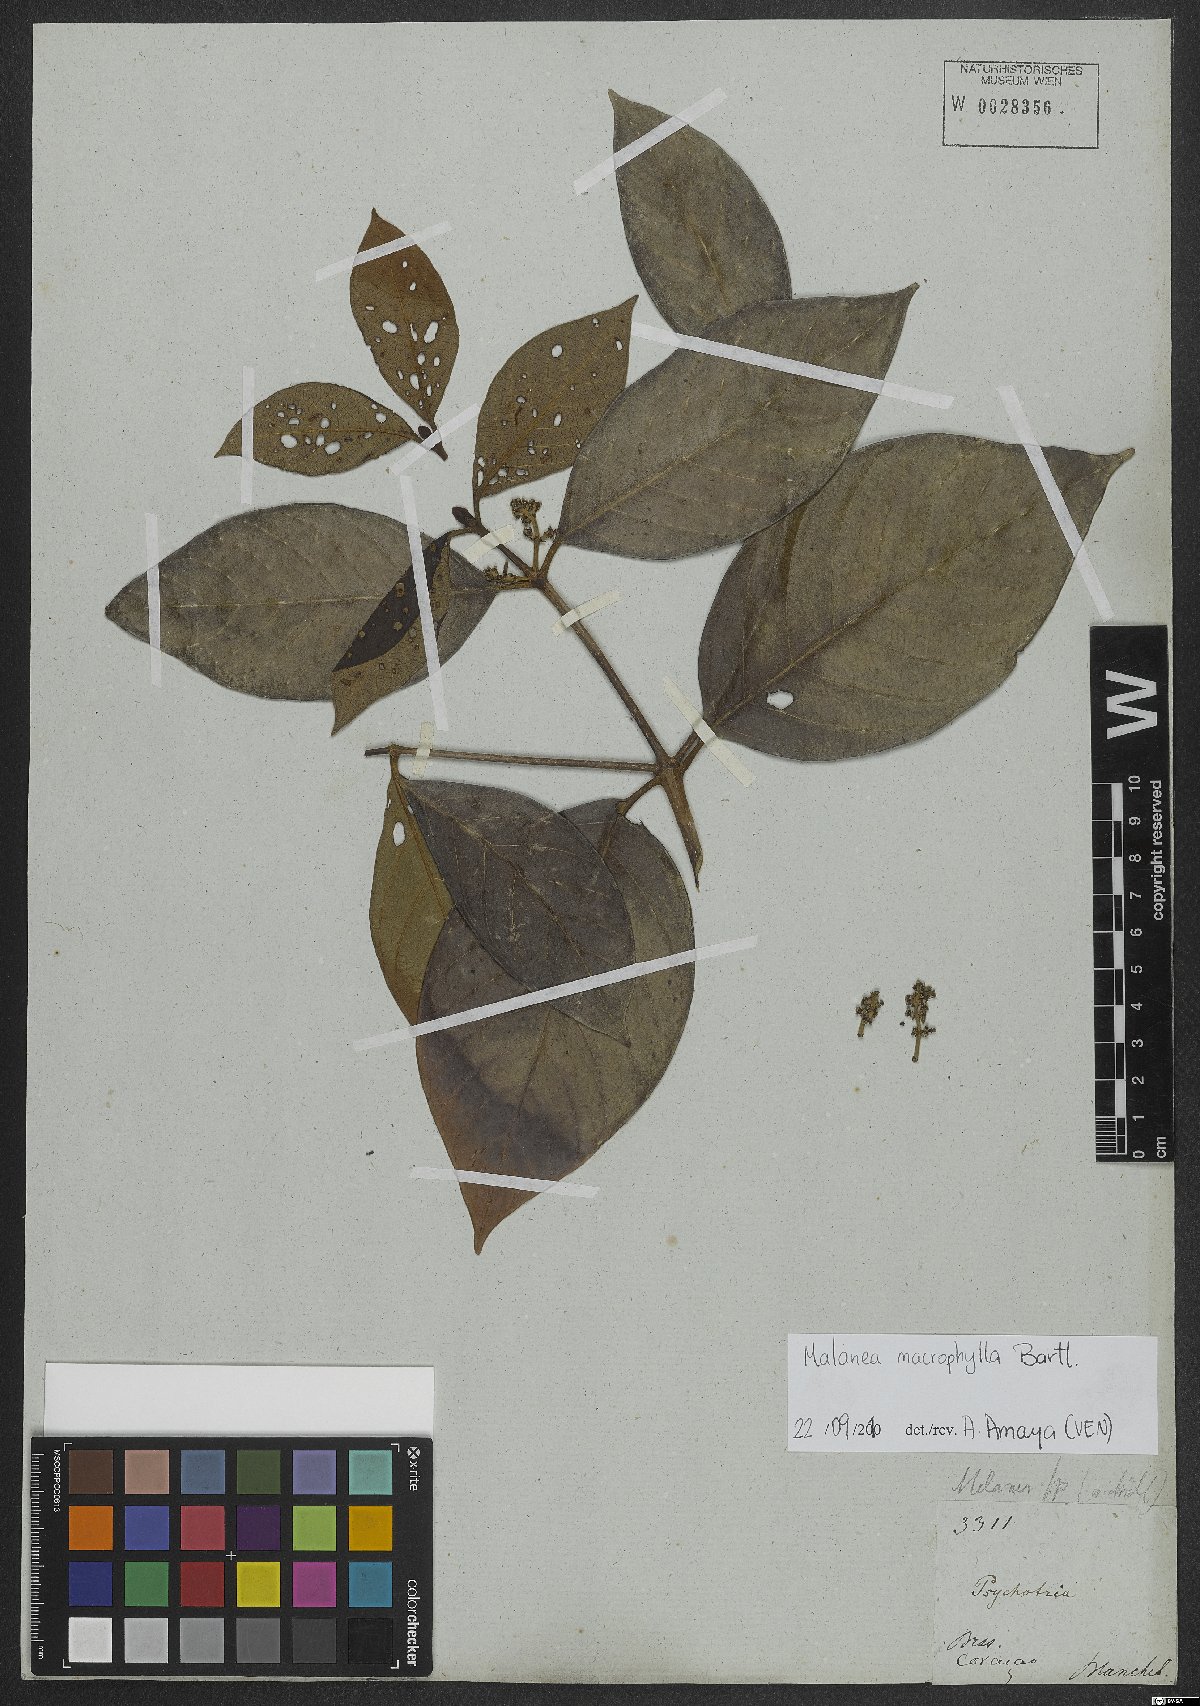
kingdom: Plantae
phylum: Tracheophyta
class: Magnoliopsida
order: Gentianales
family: Rubiaceae
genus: Malanea
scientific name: Malanea glabra
